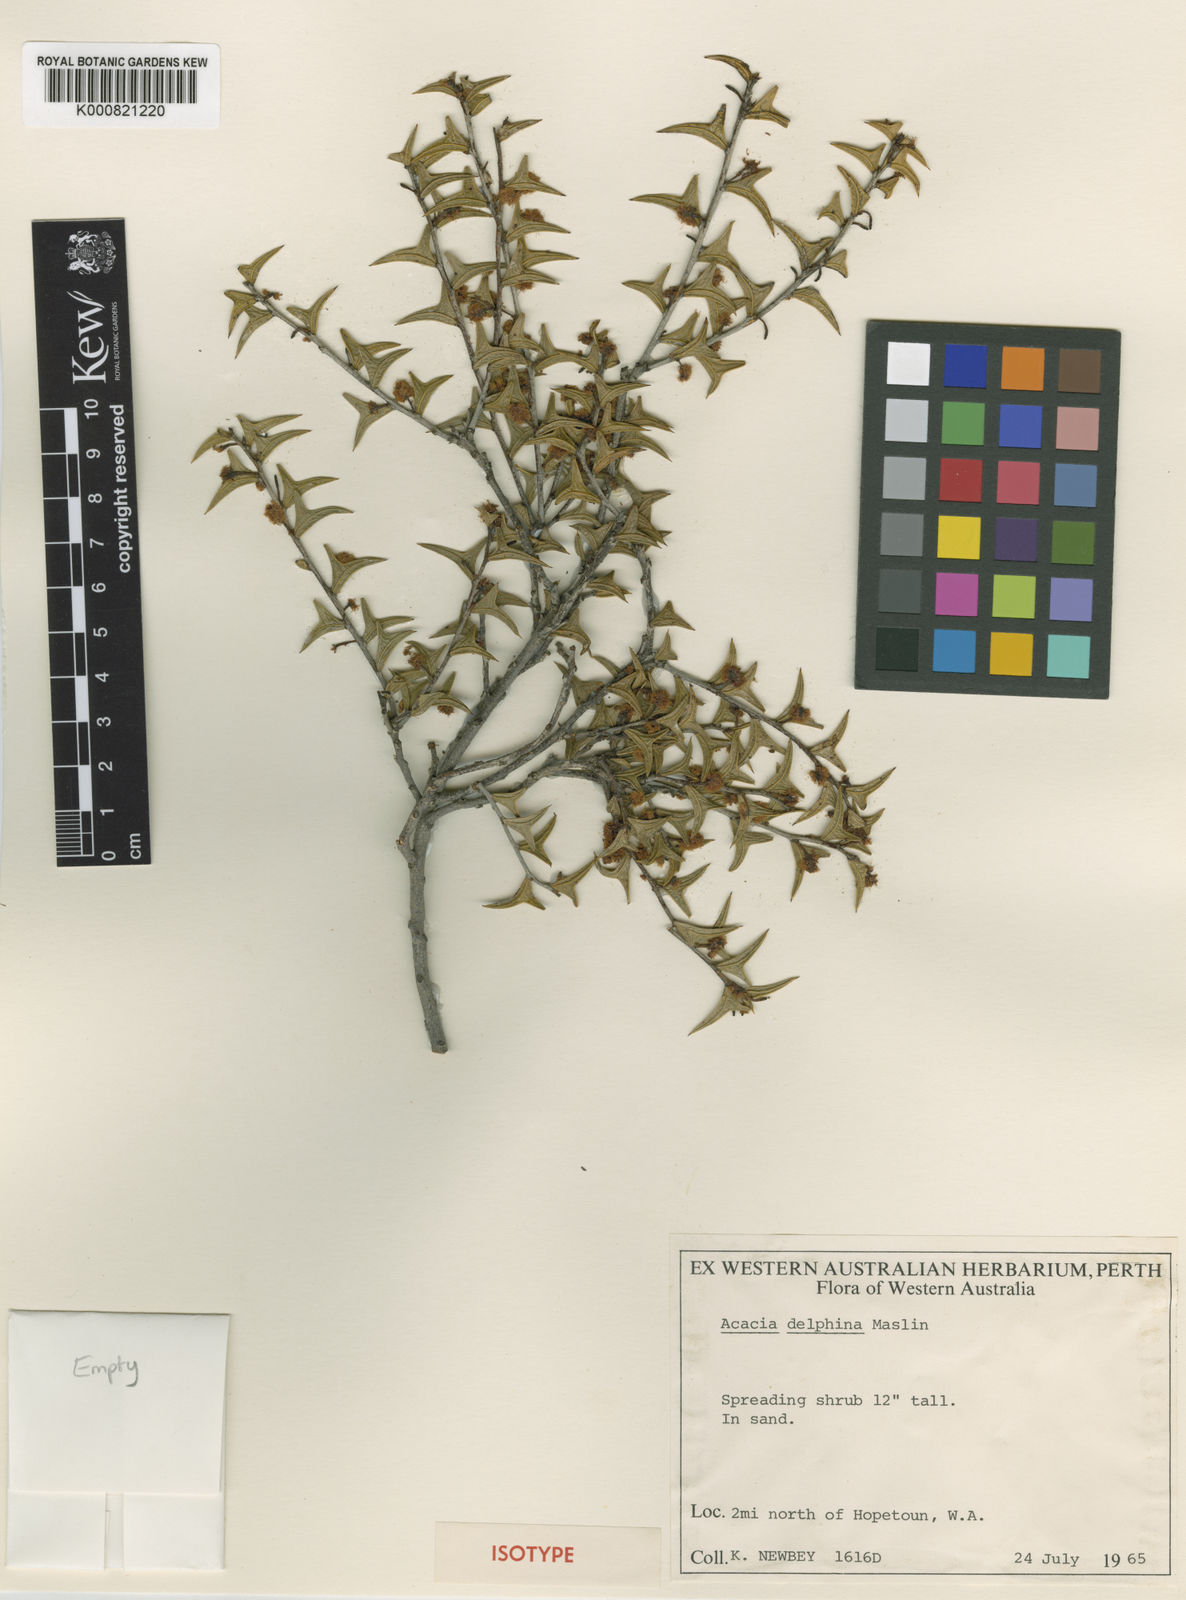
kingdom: Plantae
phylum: Tracheophyta
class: Magnoliopsida
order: Fabales
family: Fabaceae
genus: Acacia
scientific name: Acacia delphina
